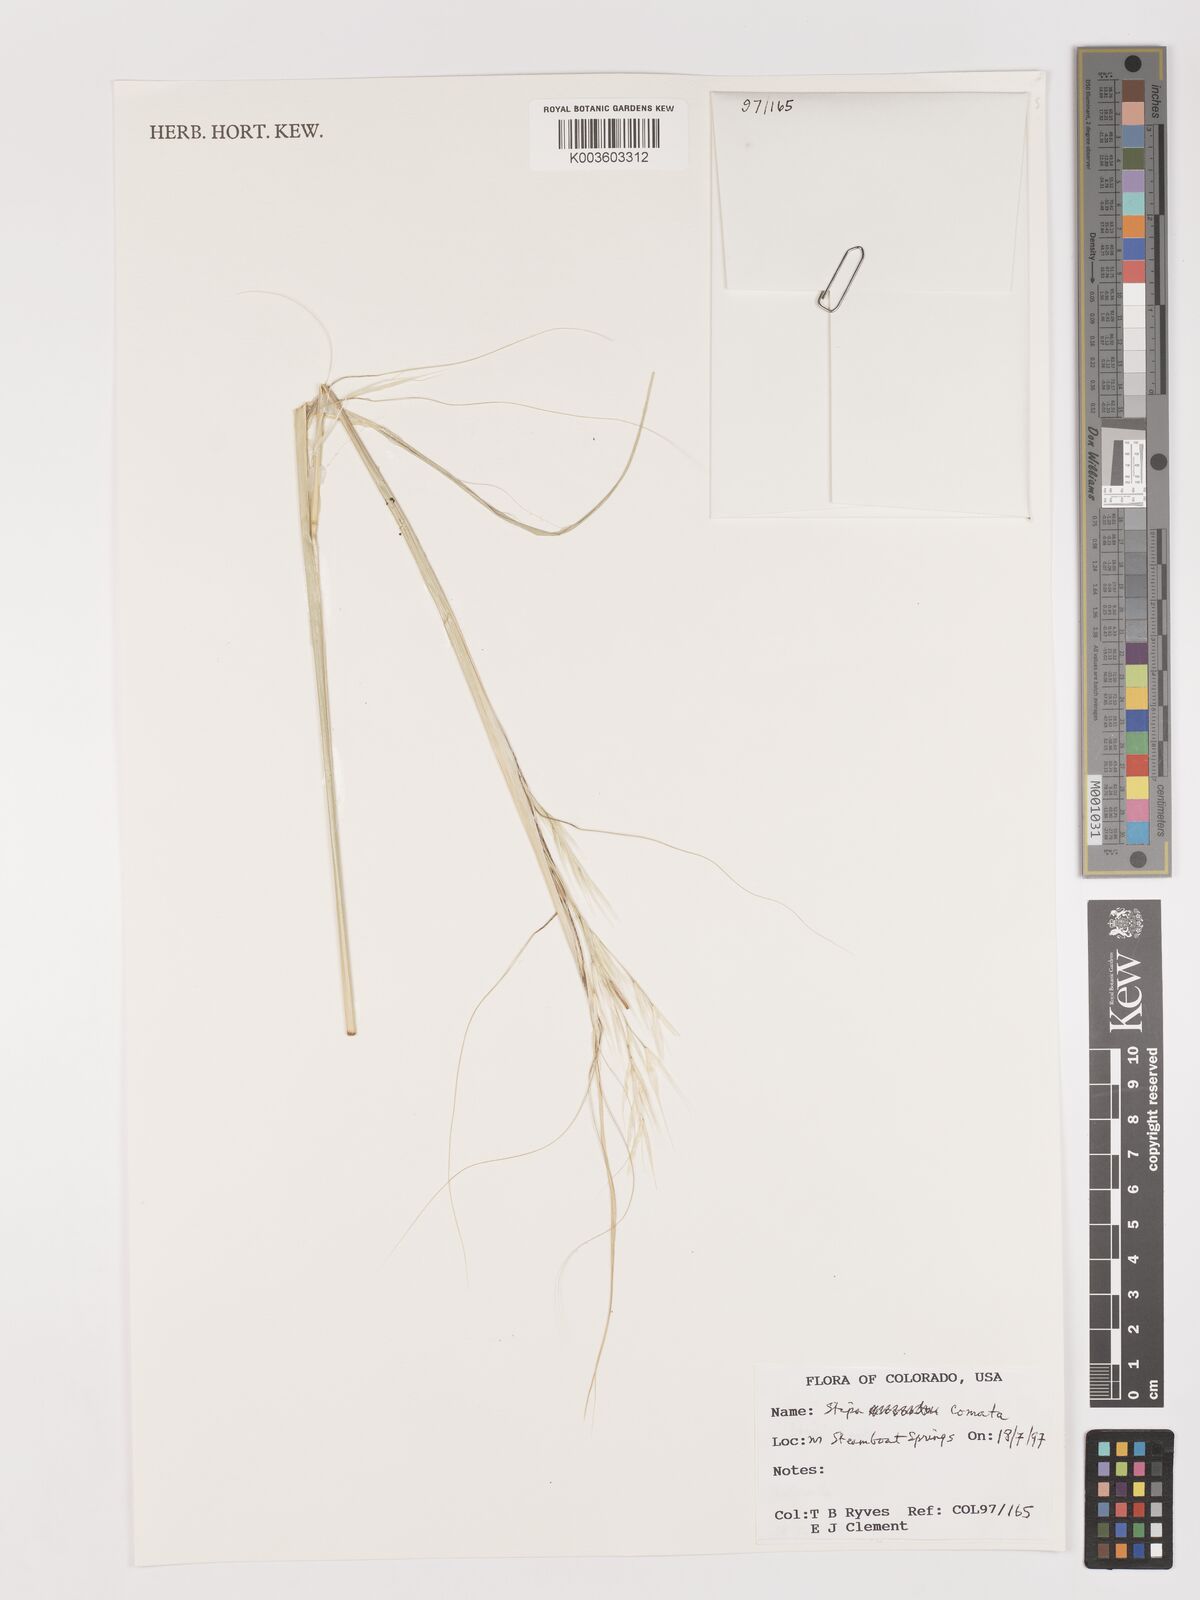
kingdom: Plantae
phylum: Tracheophyta
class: Liliopsida
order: Poales
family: Poaceae
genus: Stipa
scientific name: Stipa
